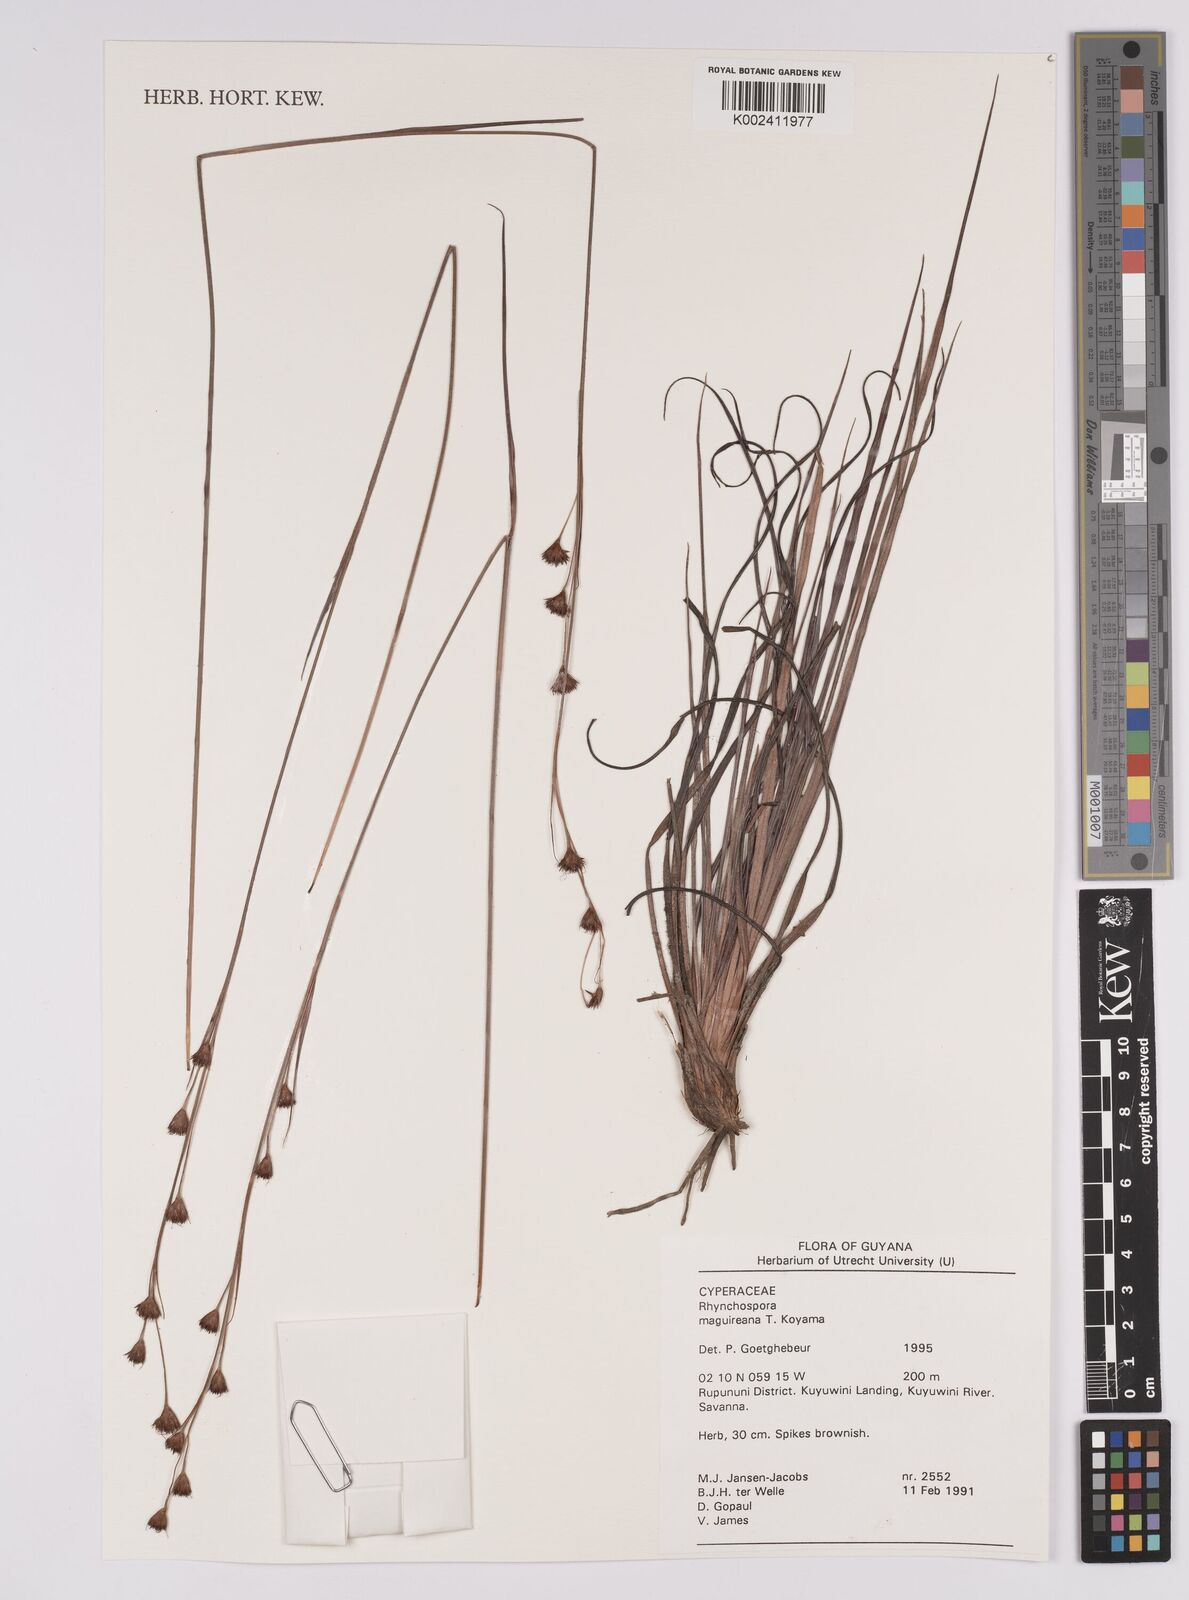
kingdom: Plantae
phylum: Tracheophyta
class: Liliopsida
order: Poales
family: Cyperaceae
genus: Rhynchospora
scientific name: Rhynchospora maguireana
